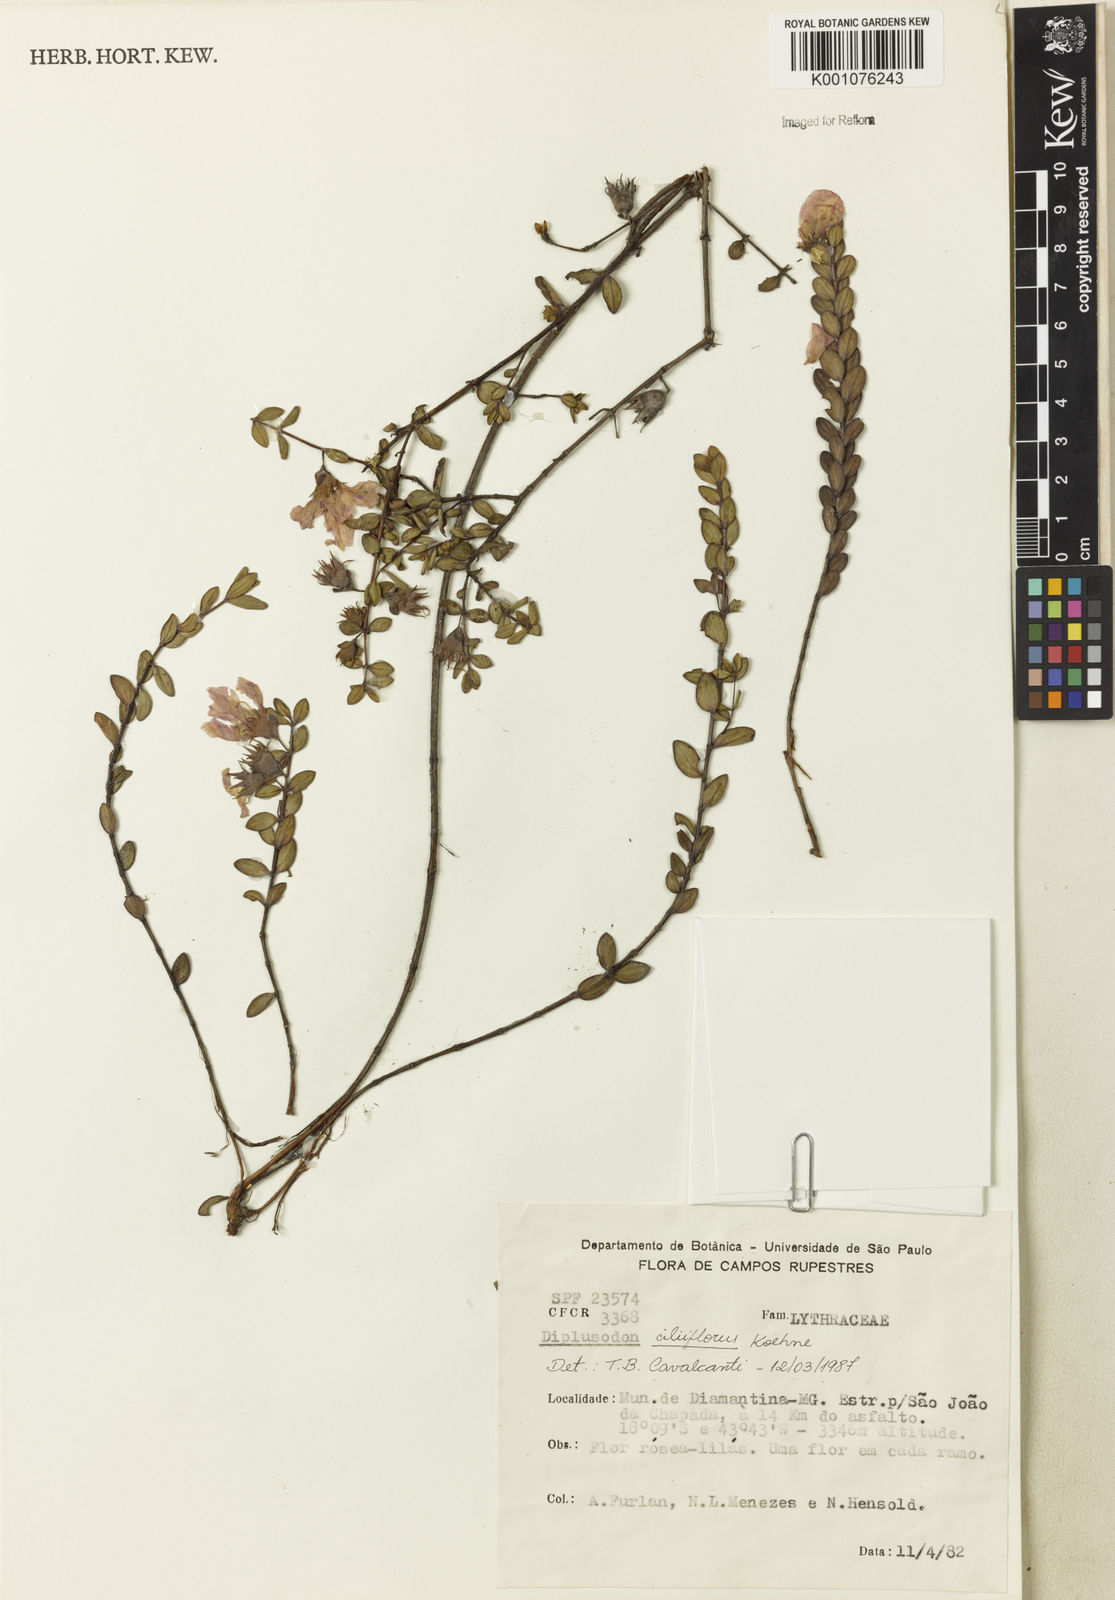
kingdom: Plantae
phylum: Tracheophyta
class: Magnoliopsida
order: Myrtales
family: Lythraceae
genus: Diplusodon
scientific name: Diplusodon ciliiflorus
